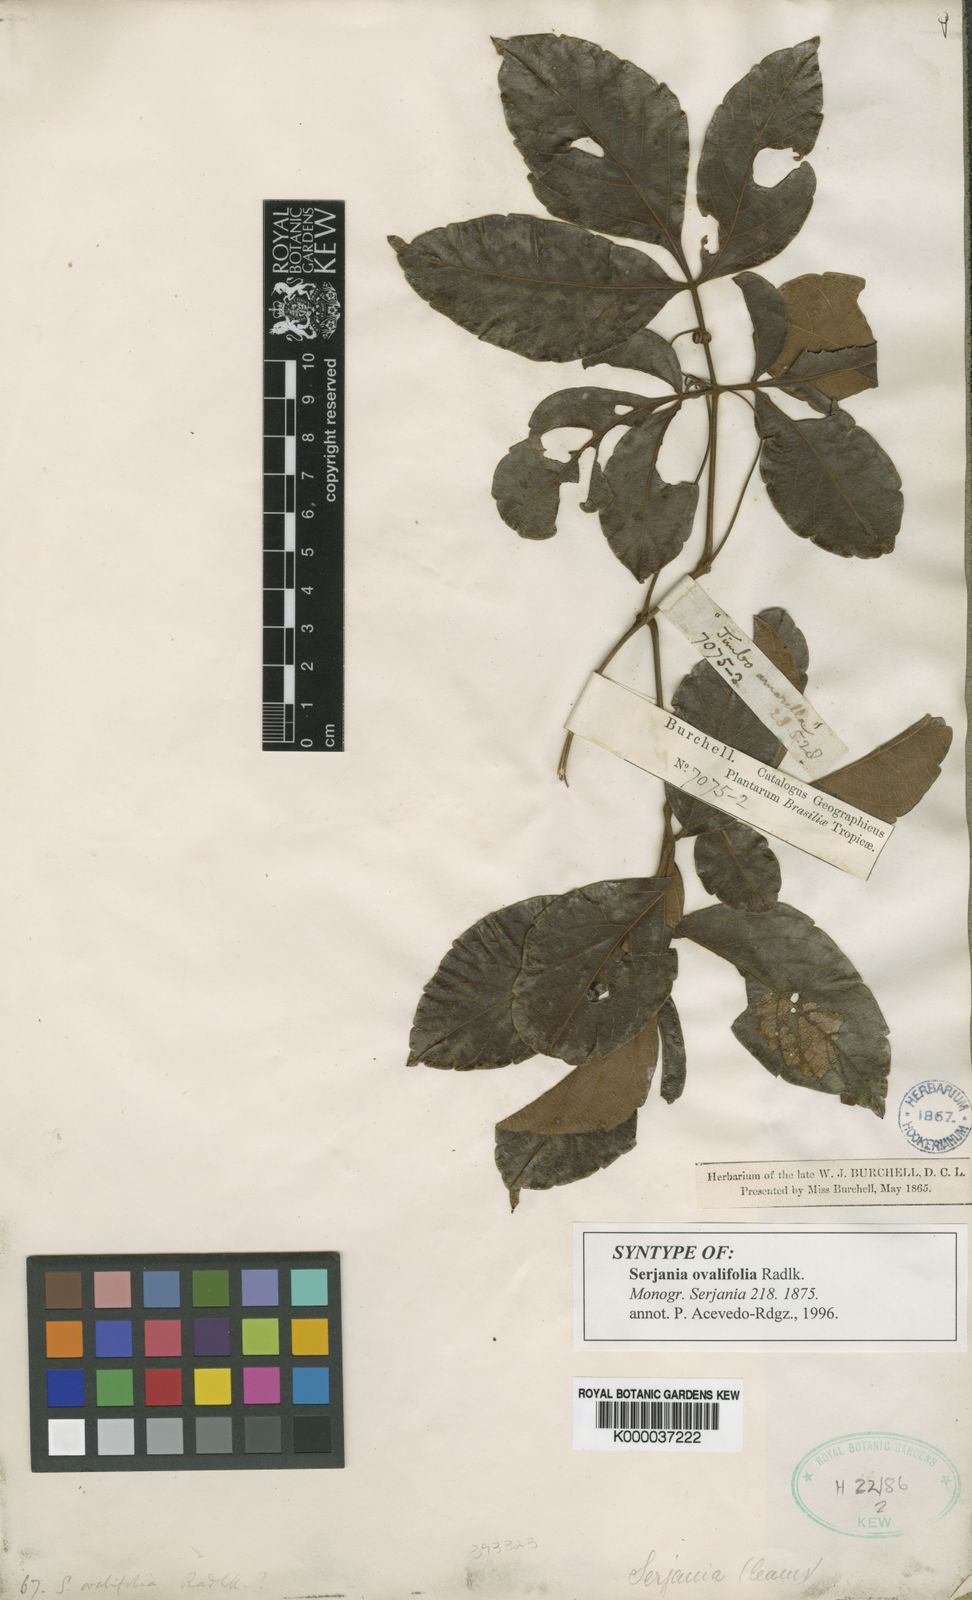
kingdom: Plantae
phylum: Tracheophyta
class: Magnoliopsida
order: Sapindales
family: Sapindaceae
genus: Serjania
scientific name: Serjania ovalifolia
